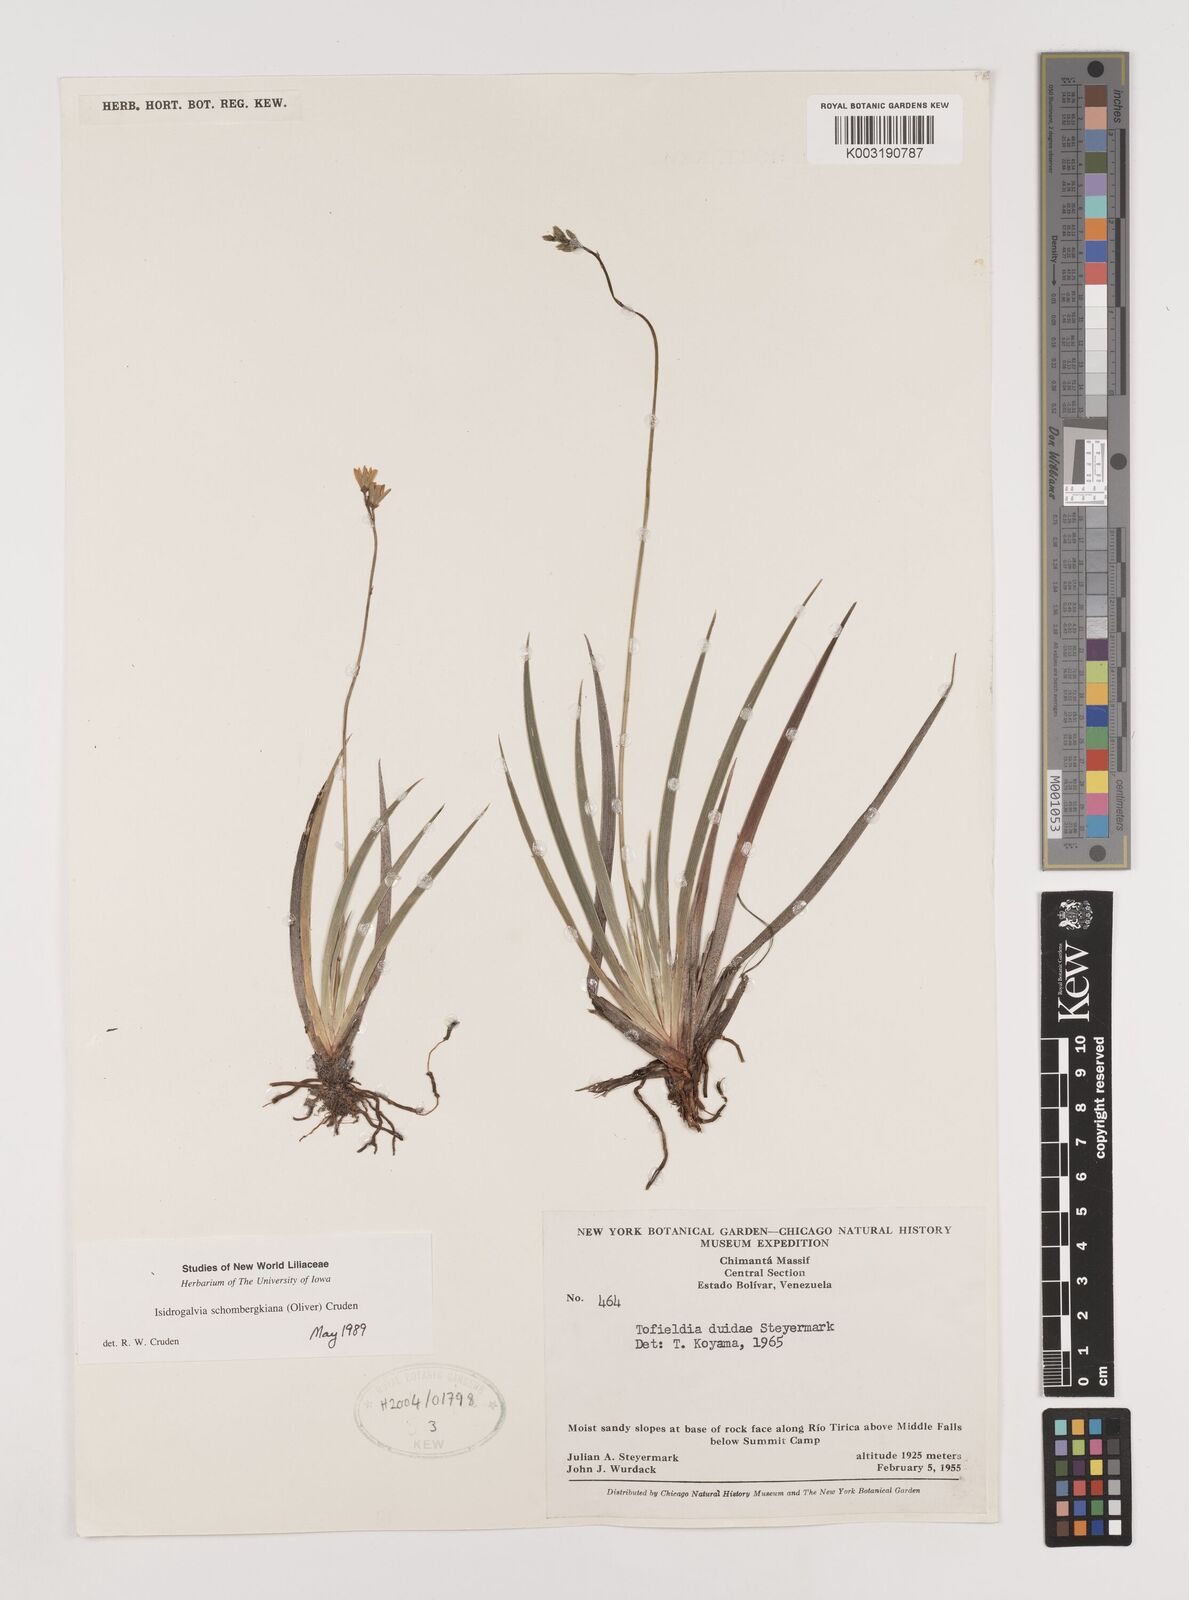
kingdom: Plantae
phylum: Tracheophyta
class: Liliopsida
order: Alismatales
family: Tofieldiaceae
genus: Harperocallis
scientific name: Harperocallis schomburgkiana
